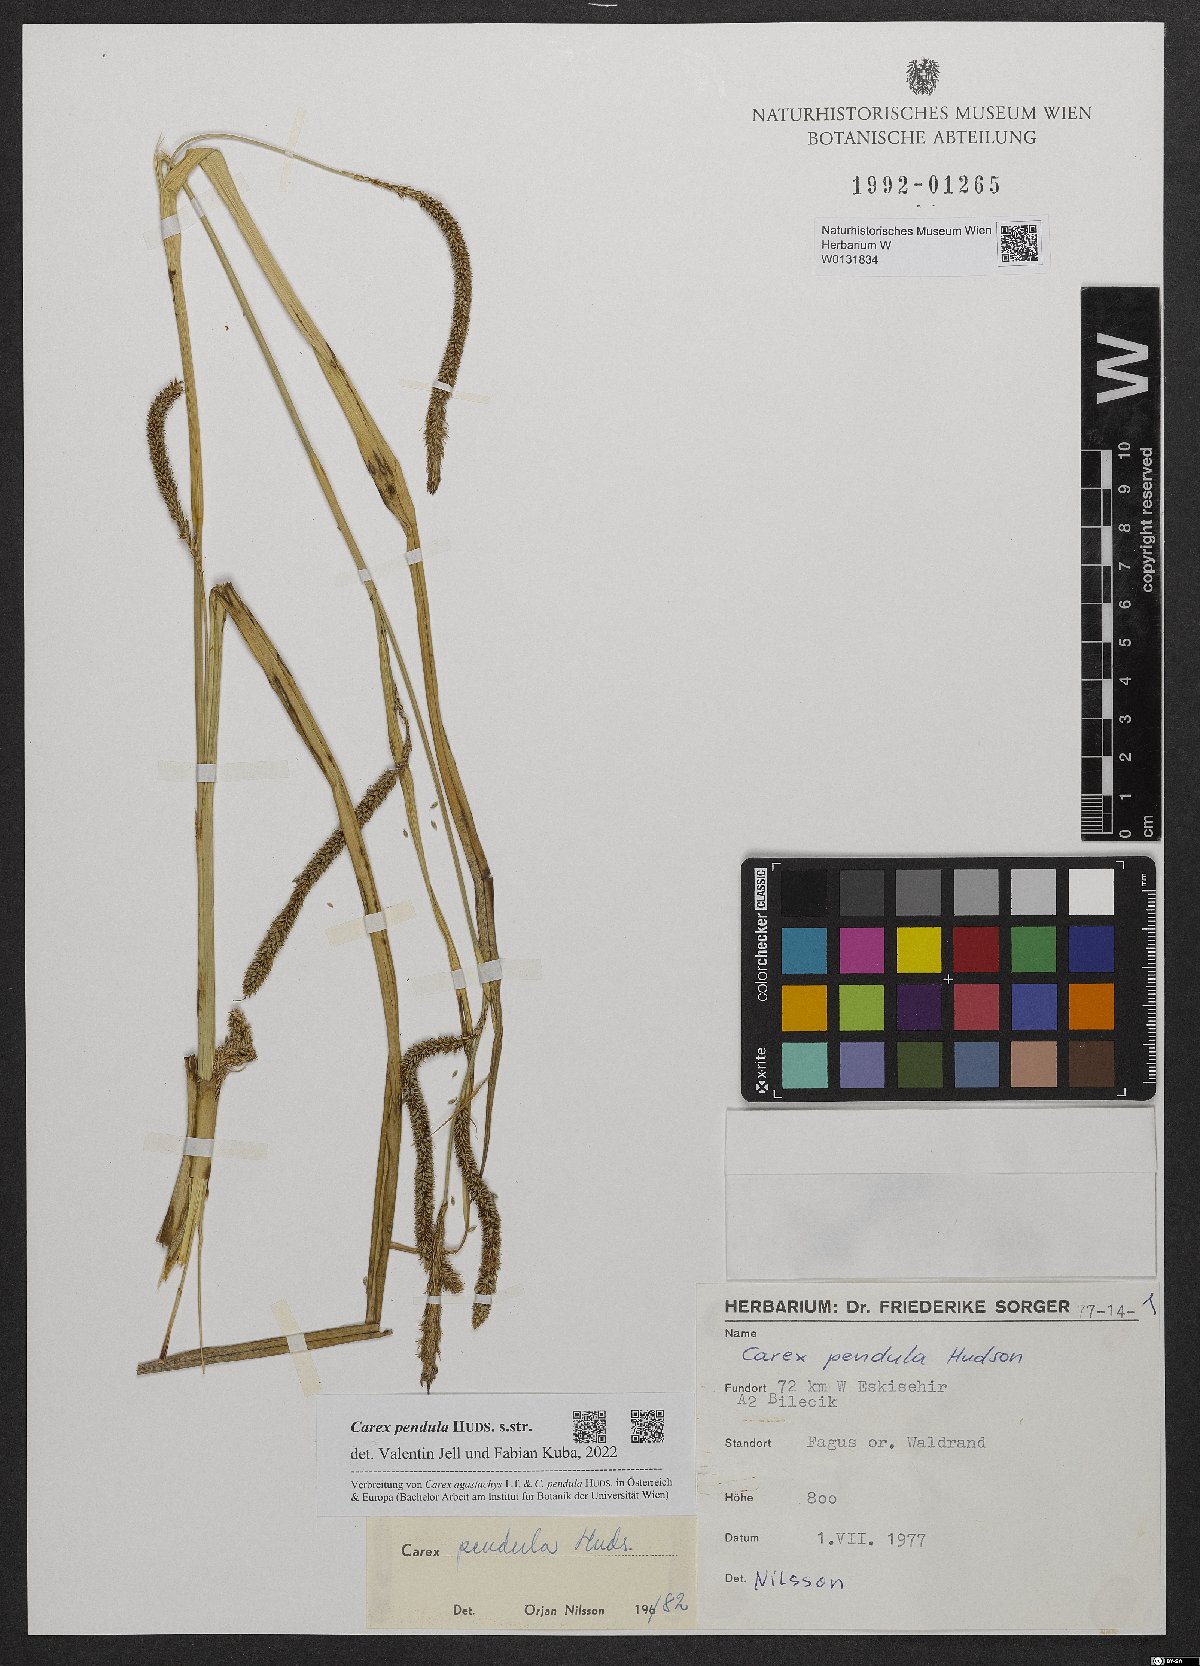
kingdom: Plantae
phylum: Tracheophyta
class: Liliopsida
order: Poales
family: Cyperaceae
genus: Carex
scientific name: Carex pendula
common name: Pendulous sedge
